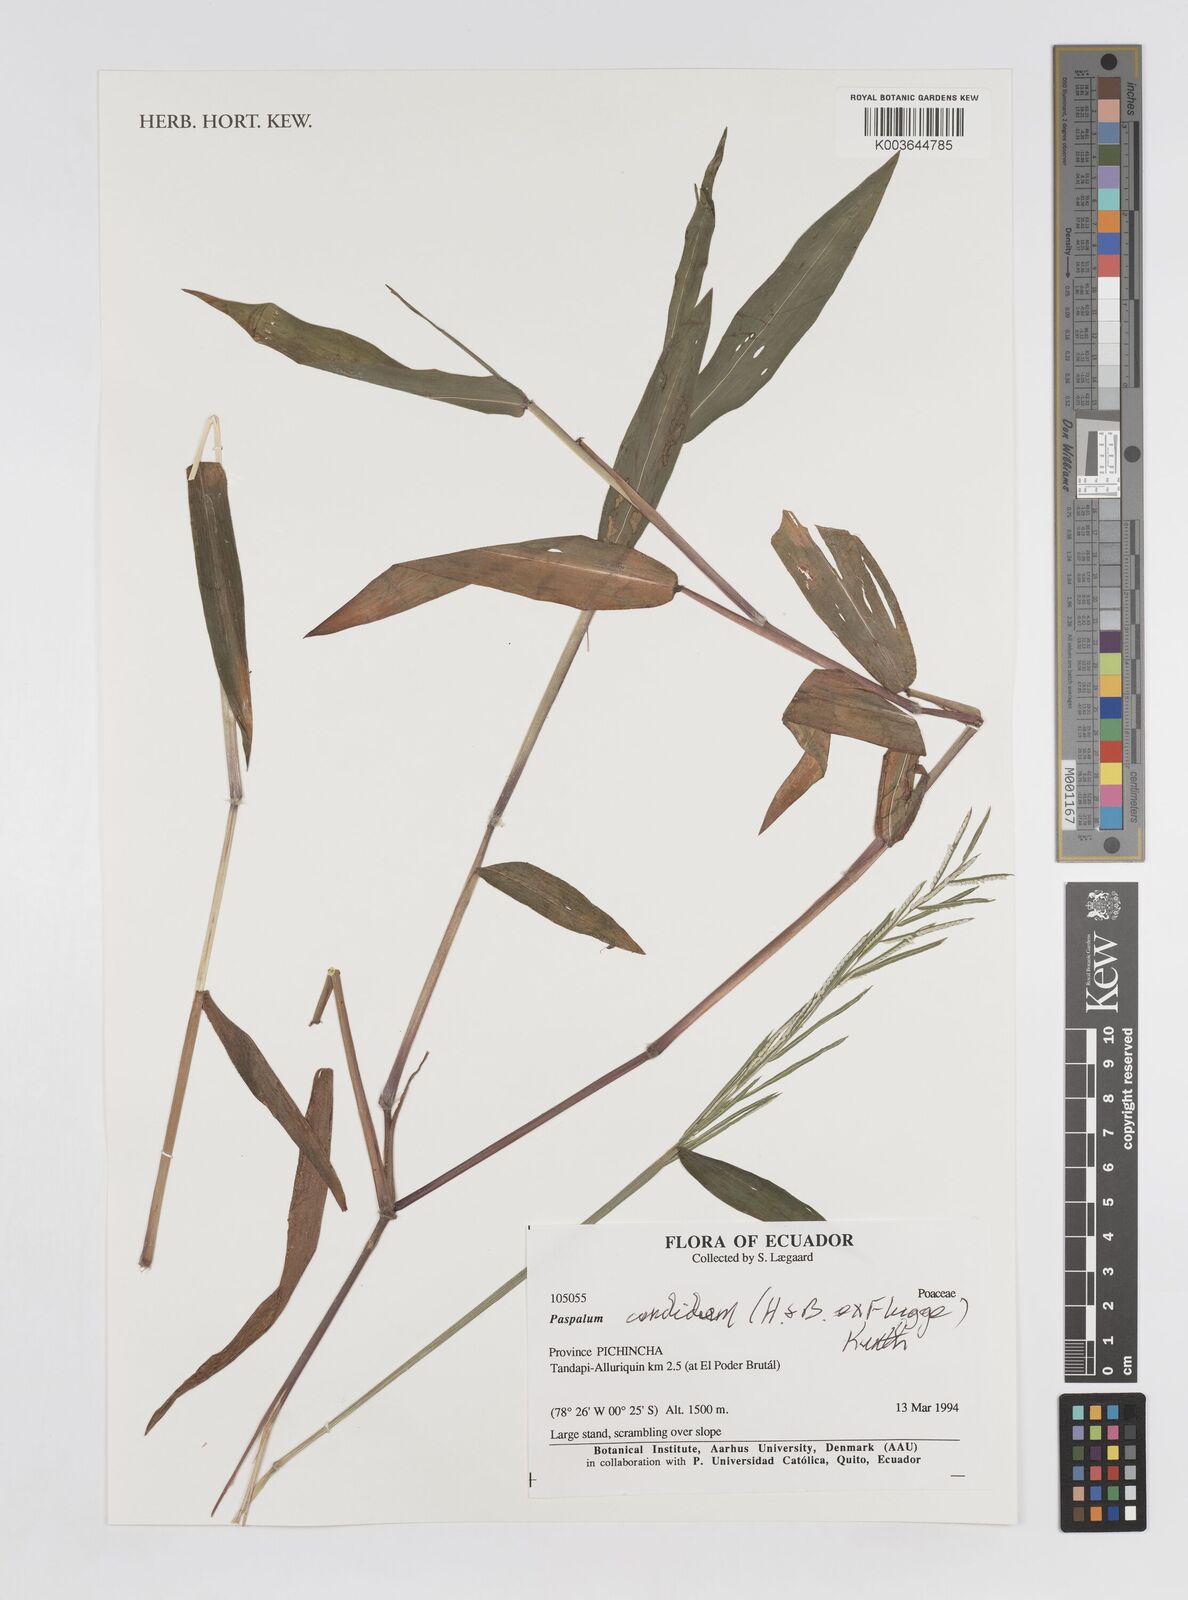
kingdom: Plantae
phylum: Tracheophyta
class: Liliopsida
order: Poales
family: Poaceae
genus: Paspalum
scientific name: Paspalum candidum
